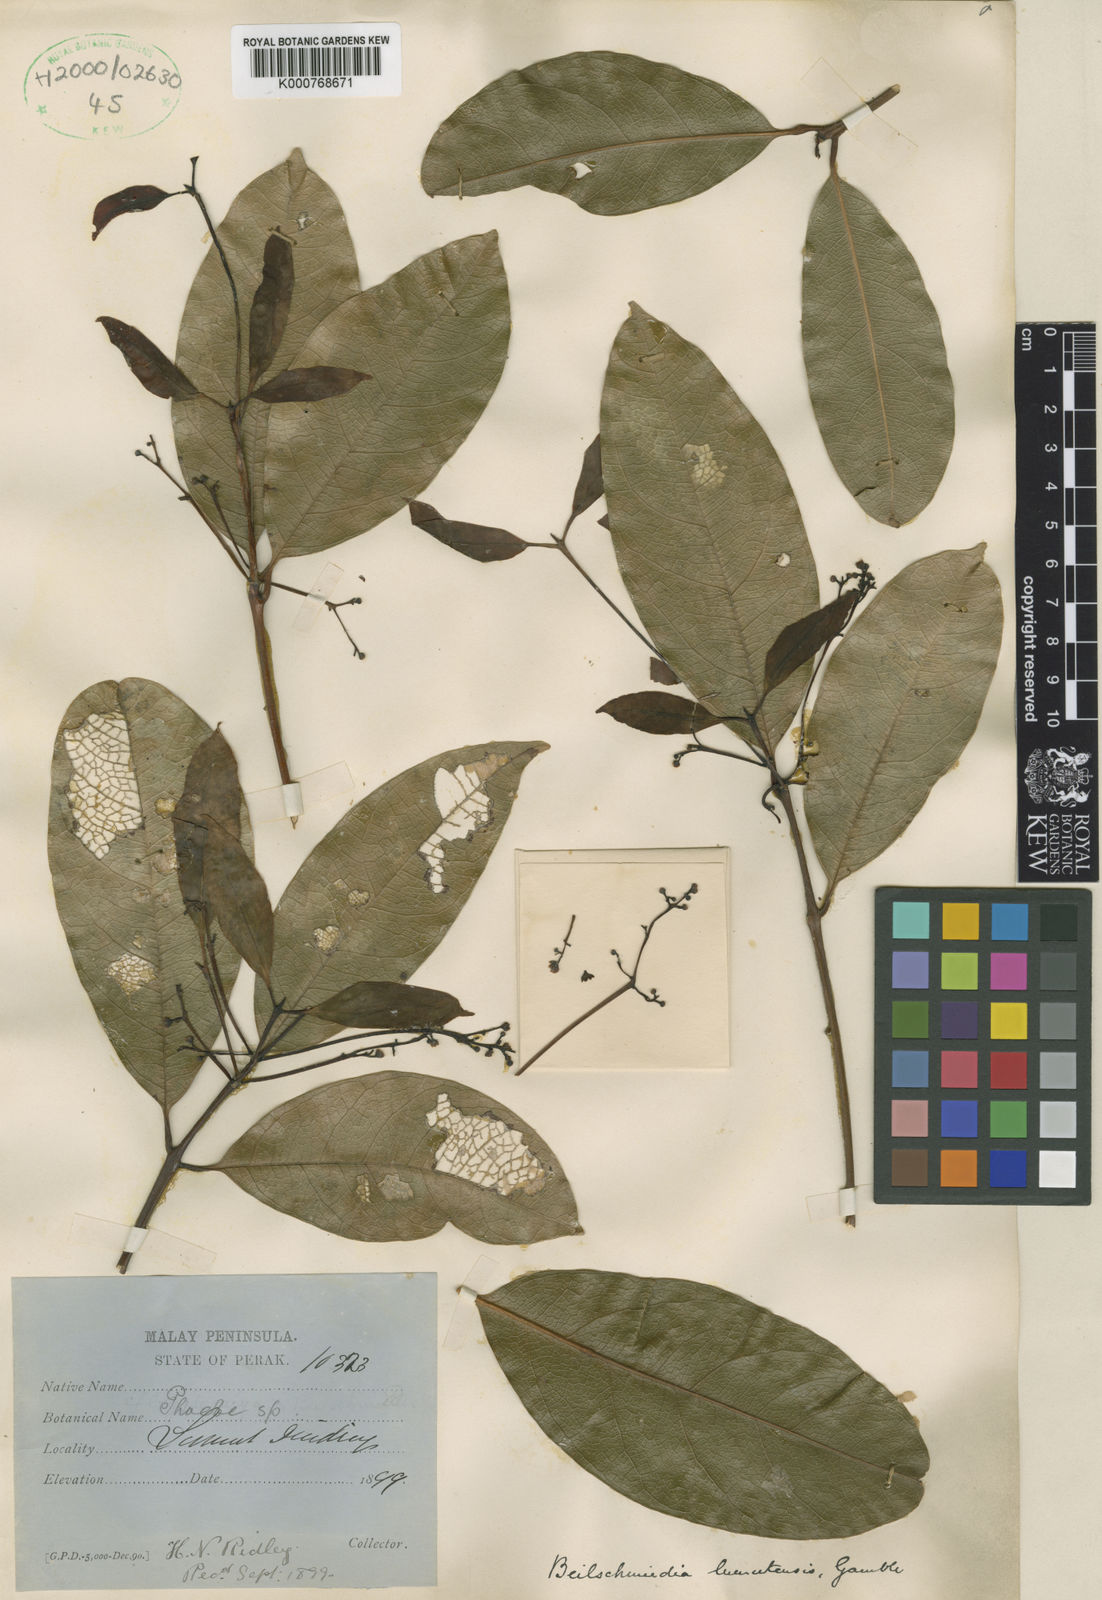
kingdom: Plantae
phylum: Tracheophyta
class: Magnoliopsida
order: Laurales
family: Lauraceae
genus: Beilschmiedia
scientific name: Beilschmiedia lumutensis
